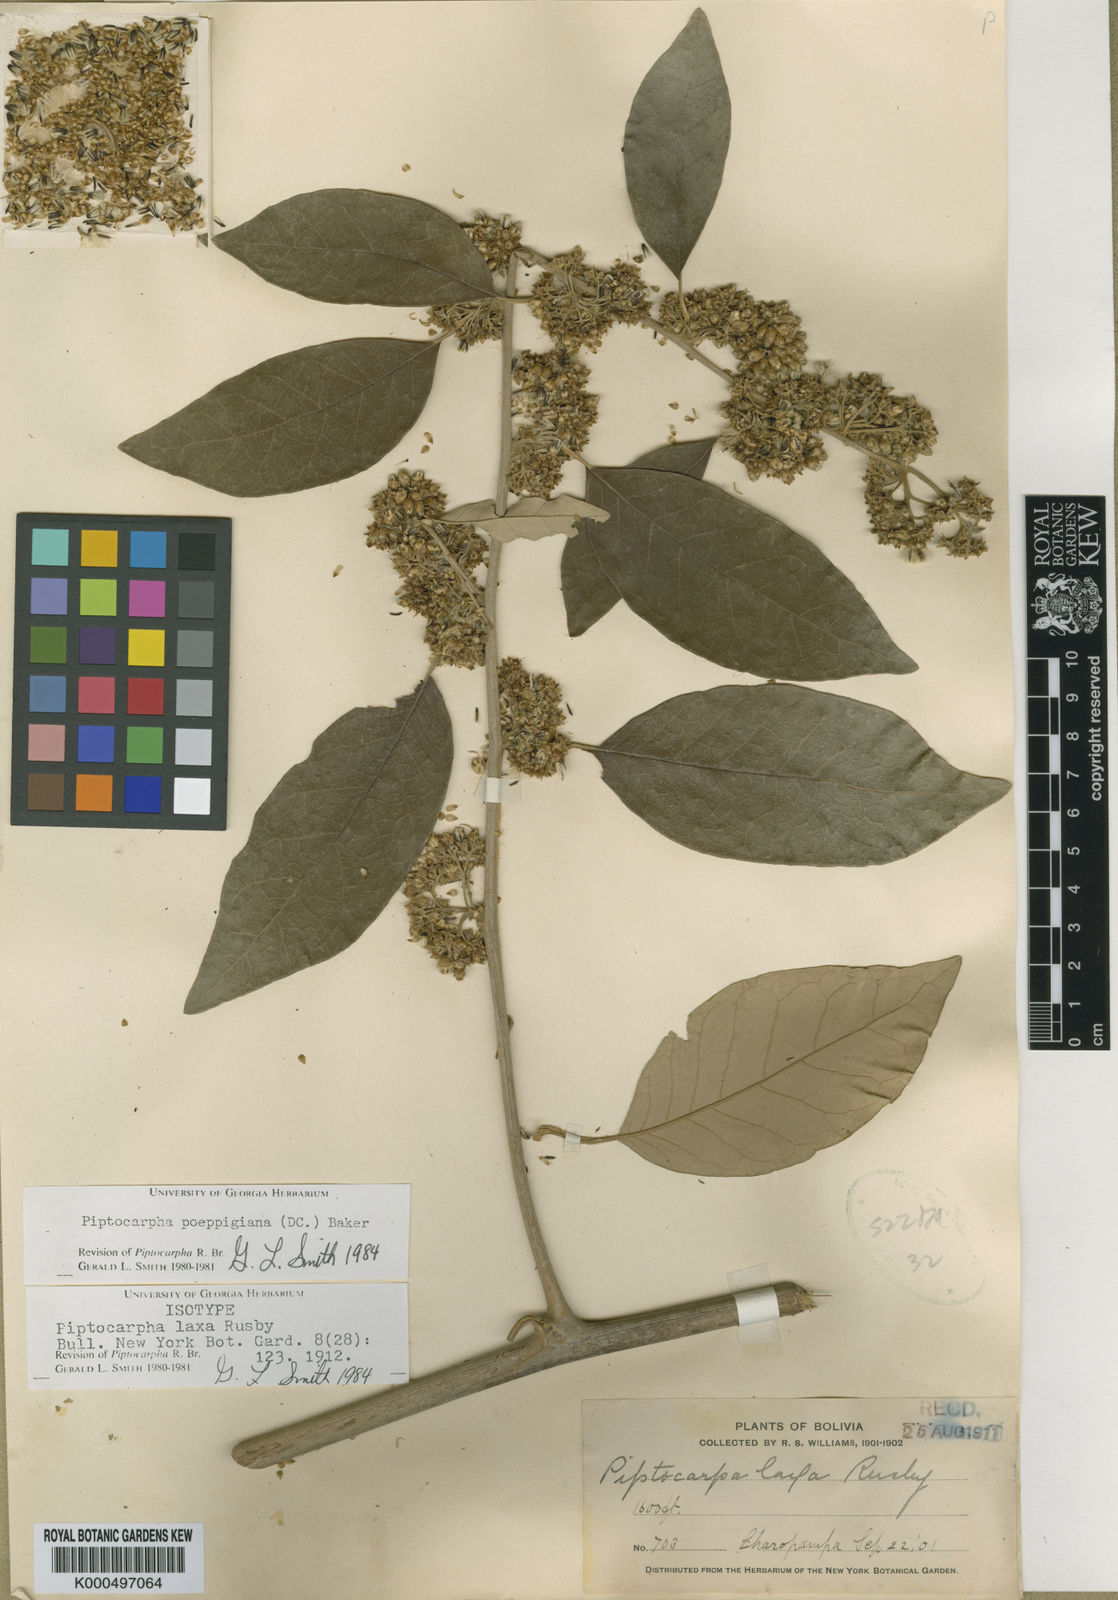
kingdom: Plantae
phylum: Tracheophyta
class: Magnoliopsida
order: Asterales
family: Asteraceae
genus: Piptocarpha
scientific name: Piptocarpha poeppigiana
